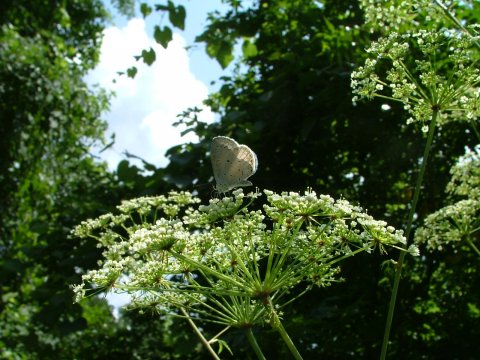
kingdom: Animalia
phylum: Arthropoda
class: Insecta
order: Lepidoptera
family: Lycaenidae
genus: Cyaniris
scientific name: Cyaniris neglecta
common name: Summer Azure
